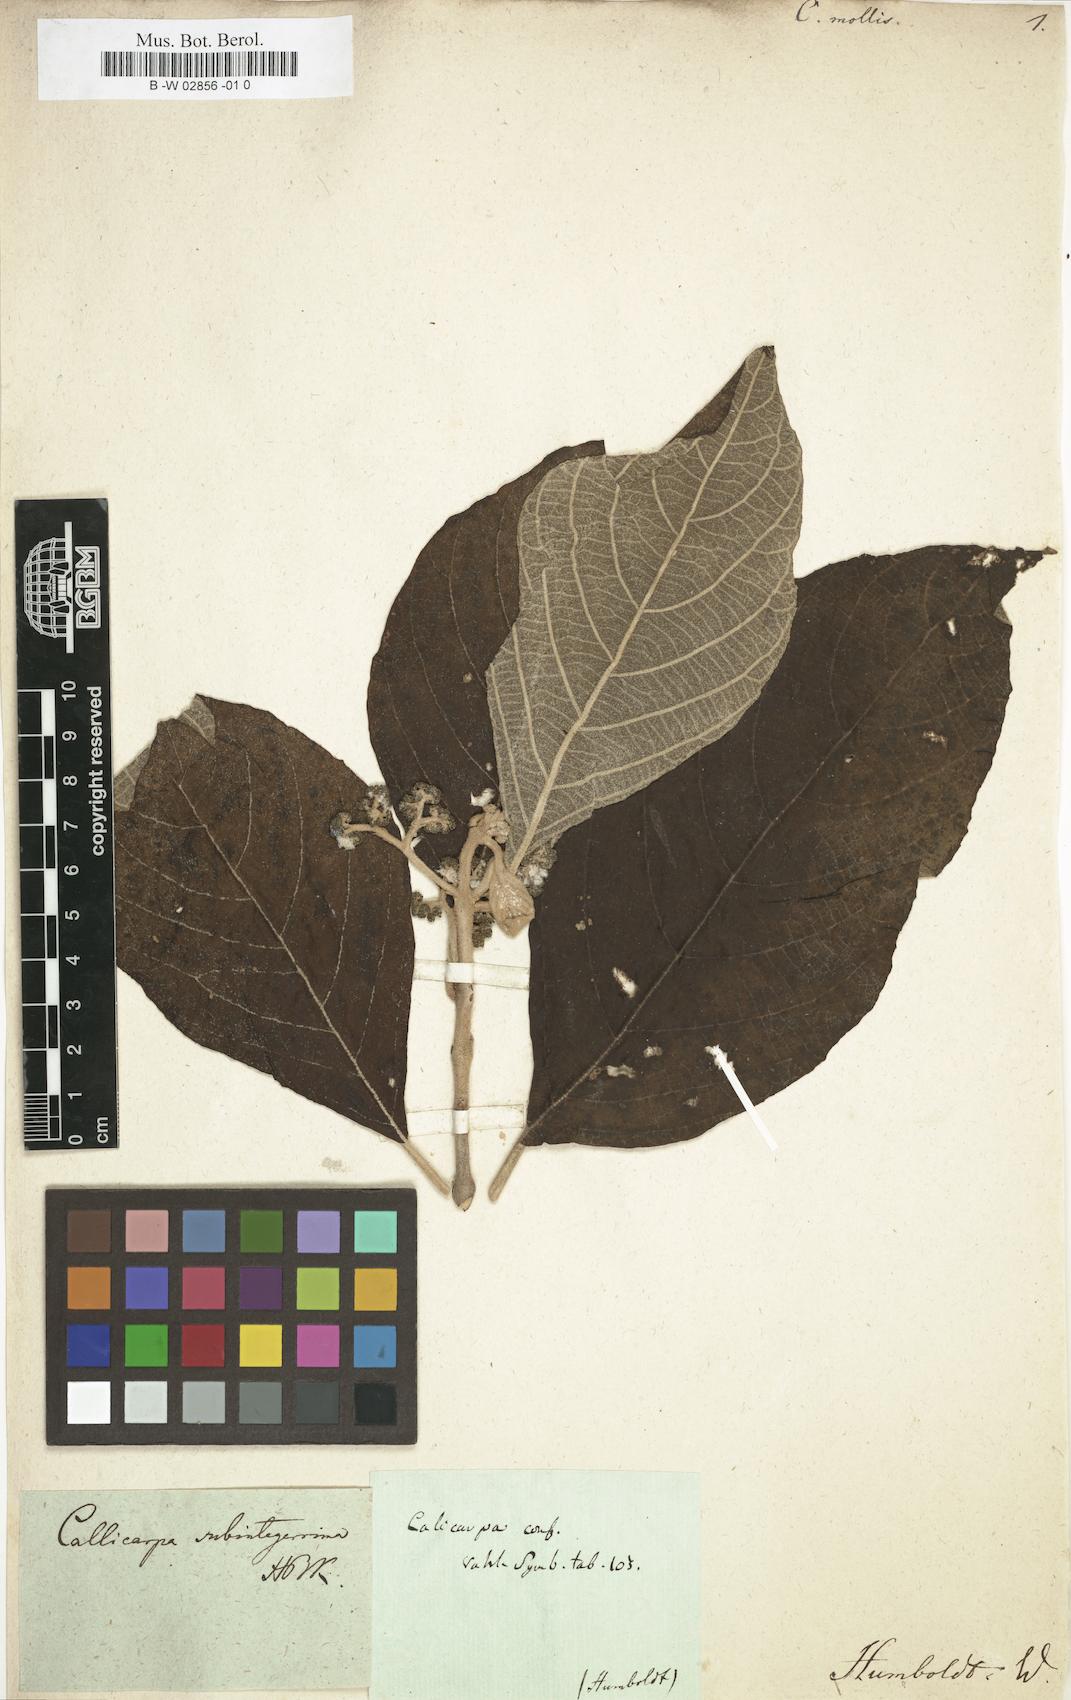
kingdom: Plantae
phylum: Tracheophyta
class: Magnoliopsida
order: Lamiales
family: Lamiaceae
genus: Callicarpa
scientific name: Callicarpa acuminata
